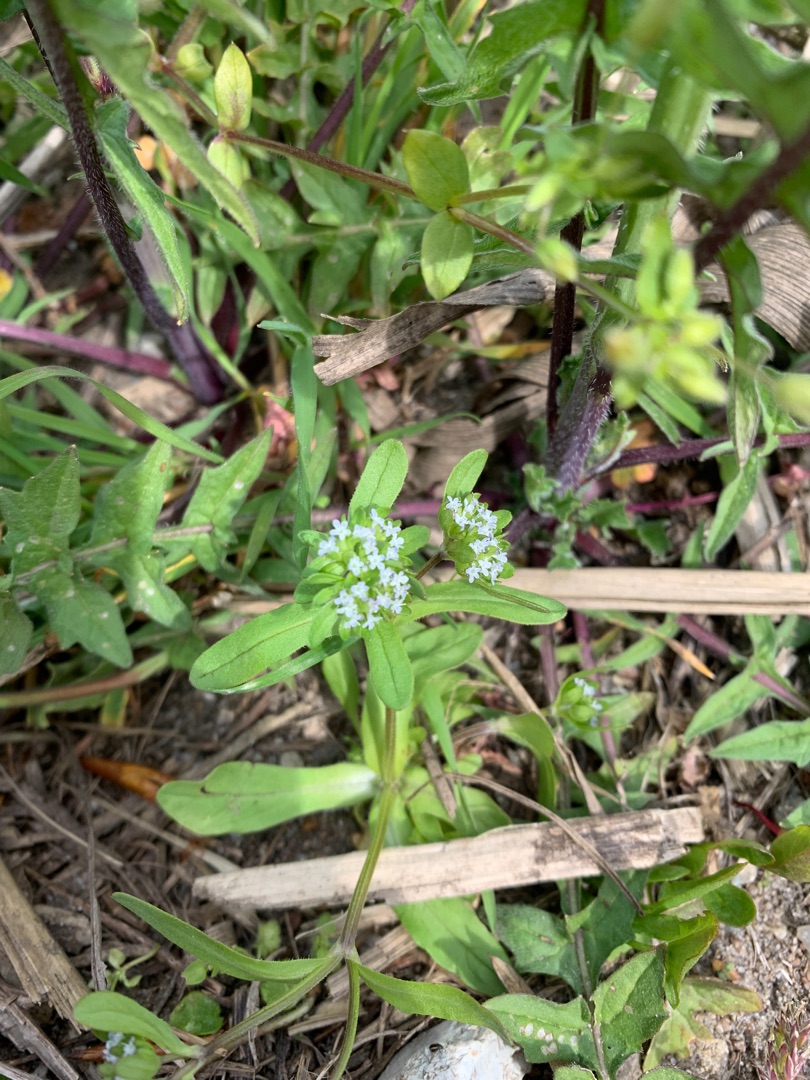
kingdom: Plantae
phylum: Tracheophyta
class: Magnoliopsida
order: Dipsacales
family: Caprifoliaceae
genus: Valerianella
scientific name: Valerianella locusta
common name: Tandfri vårsalat
